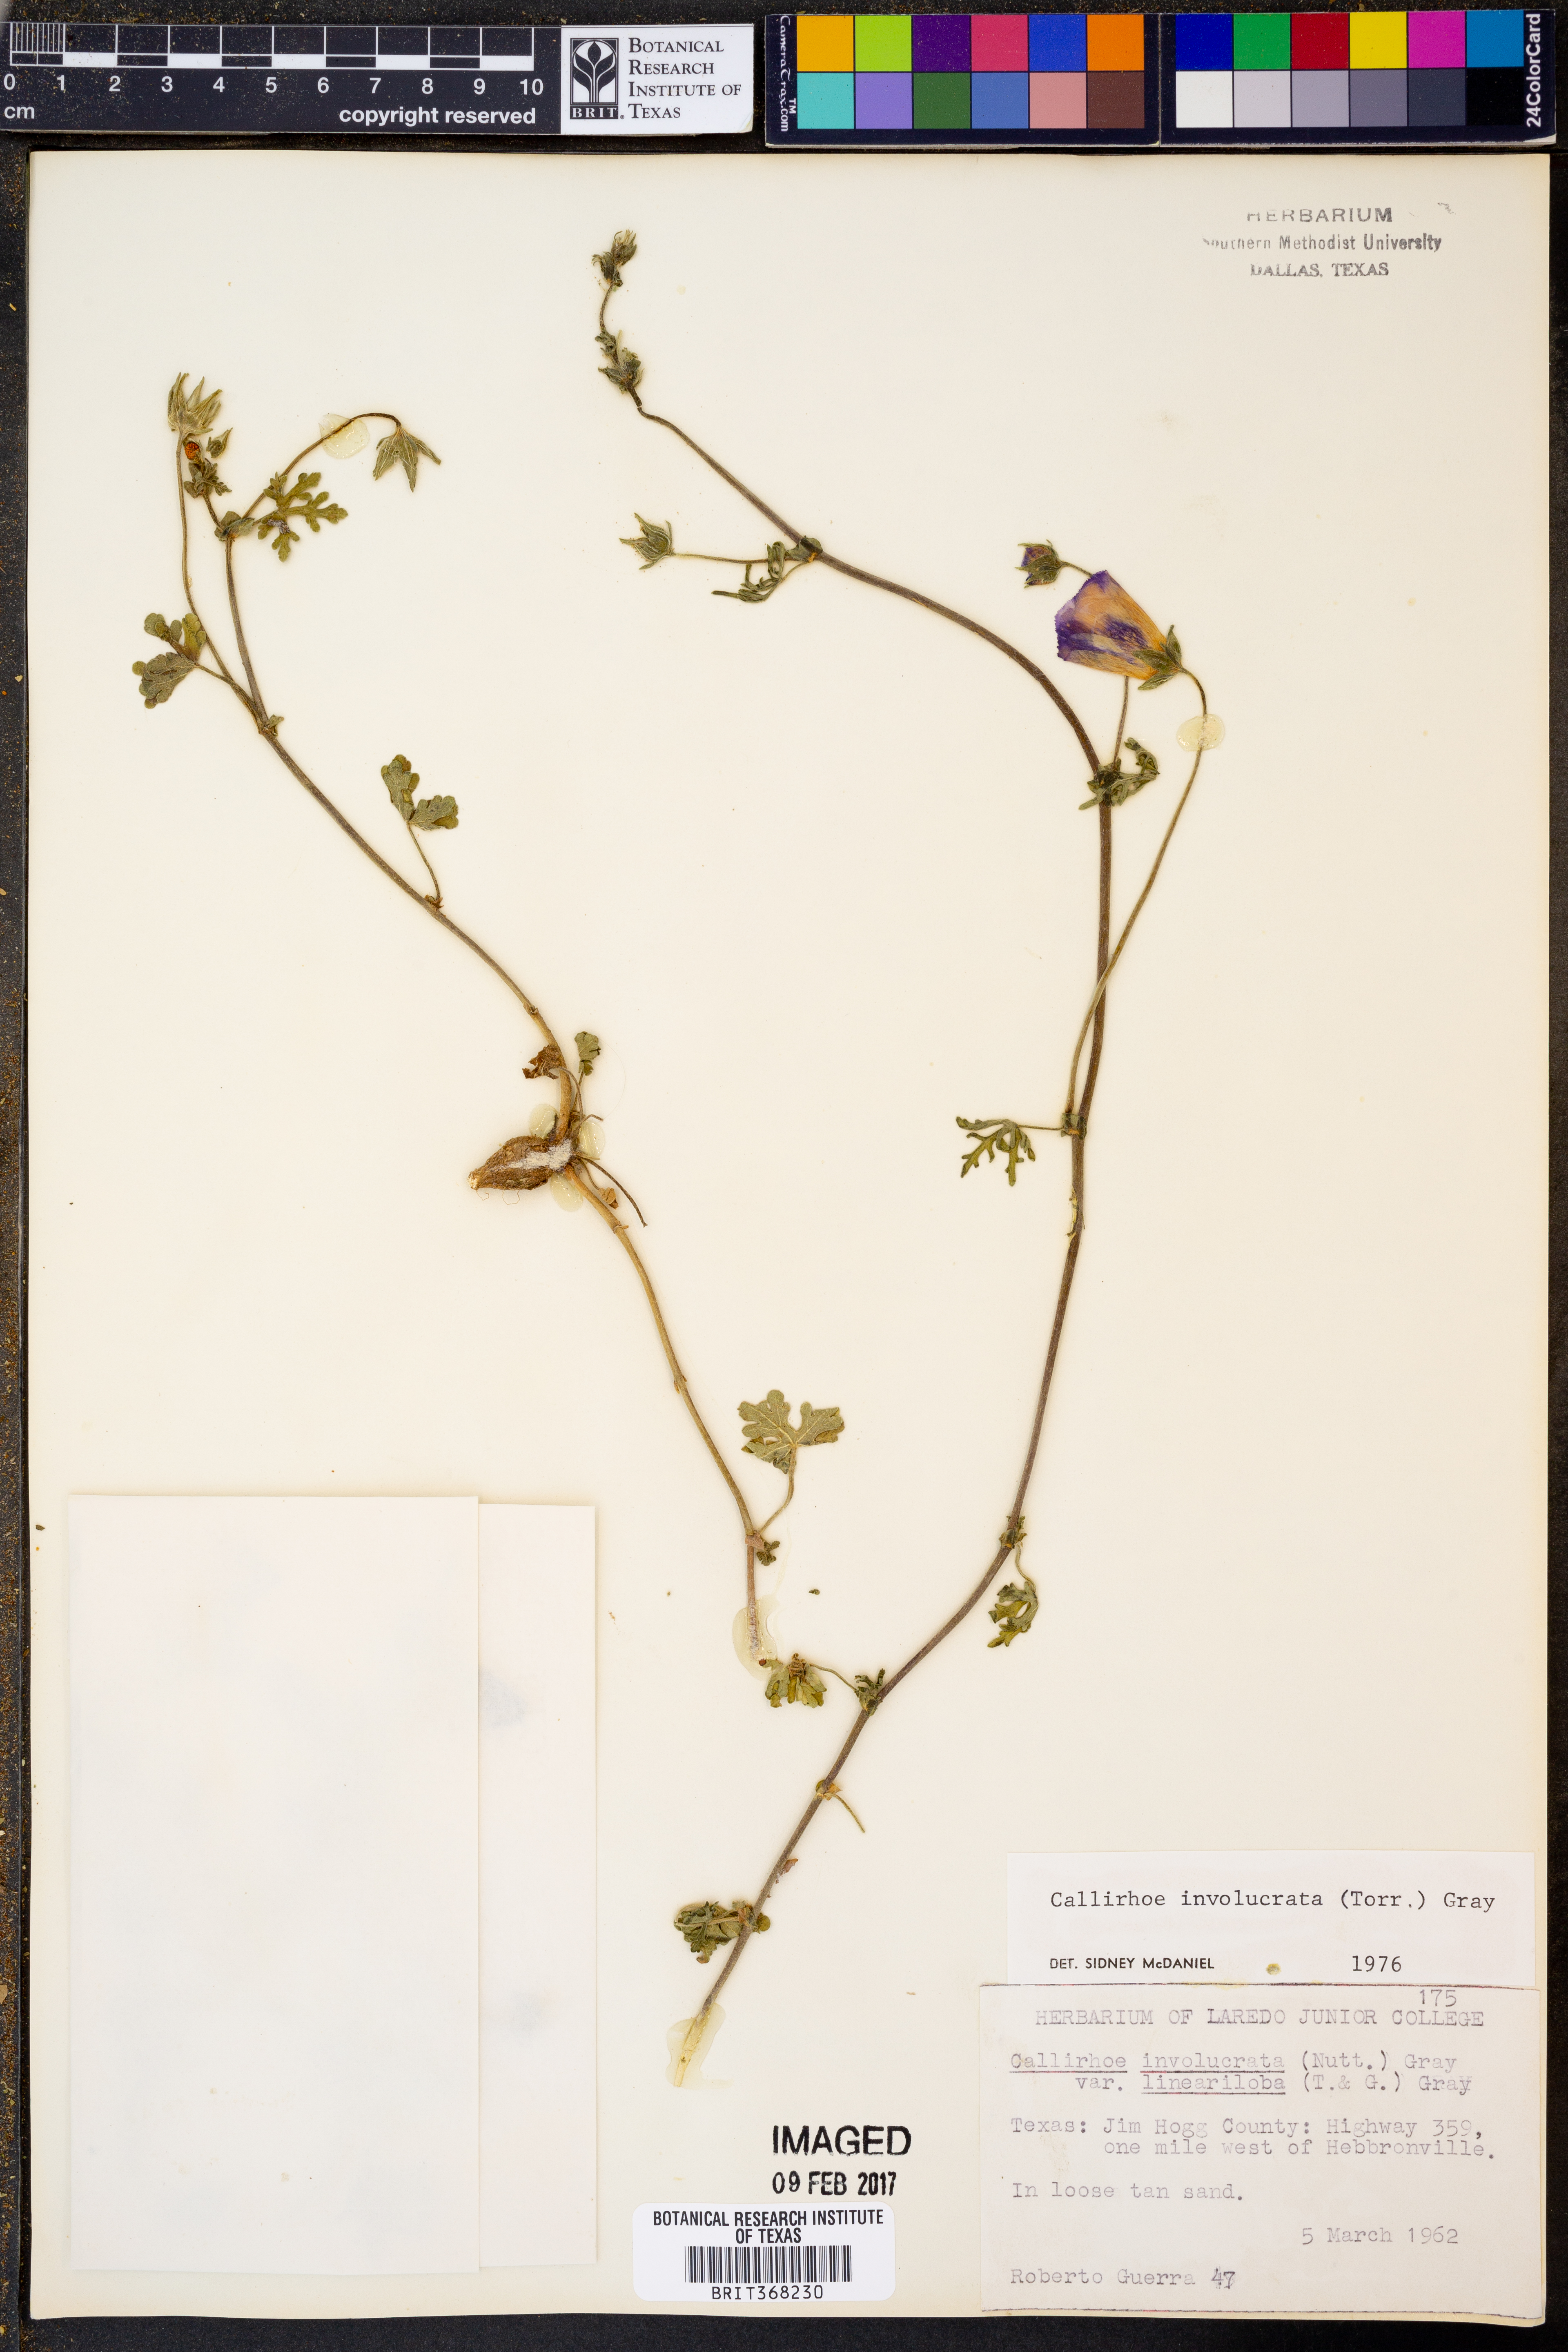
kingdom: Plantae
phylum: Tracheophyta
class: Magnoliopsida
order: Malvales
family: Malvaceae
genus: Callirhoe
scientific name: Callirhoe involucrata
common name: Purple poppy-mallow
